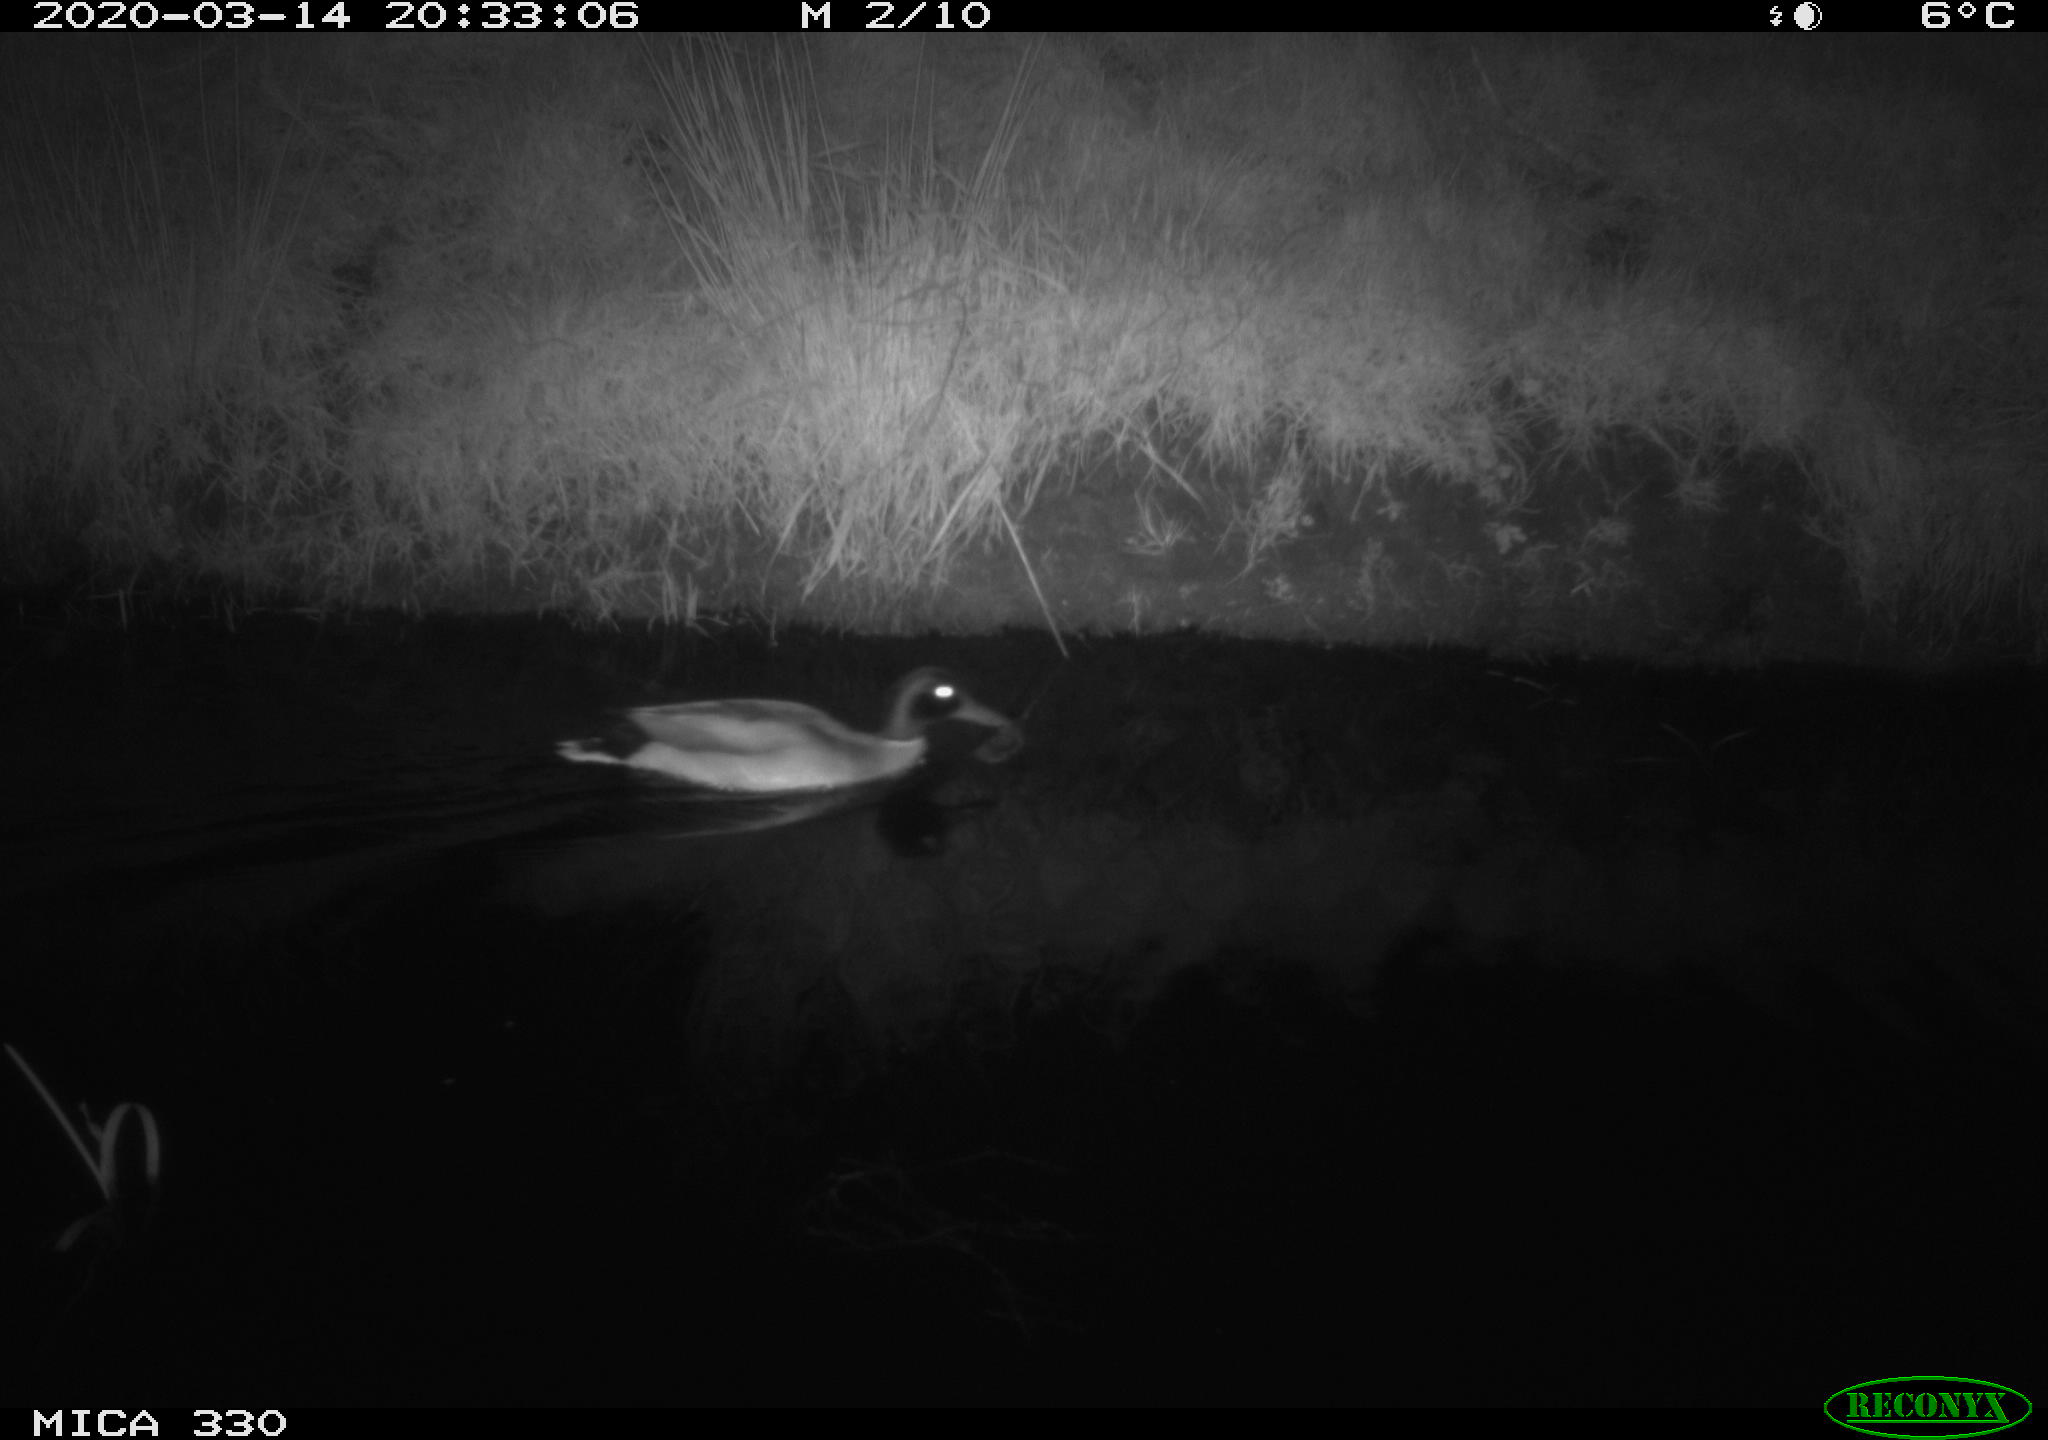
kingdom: Animalia
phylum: Chordata
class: Aves
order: Anseriformes
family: Anatidae
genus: Anas
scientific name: Anas platyrhynchos
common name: Mallard
